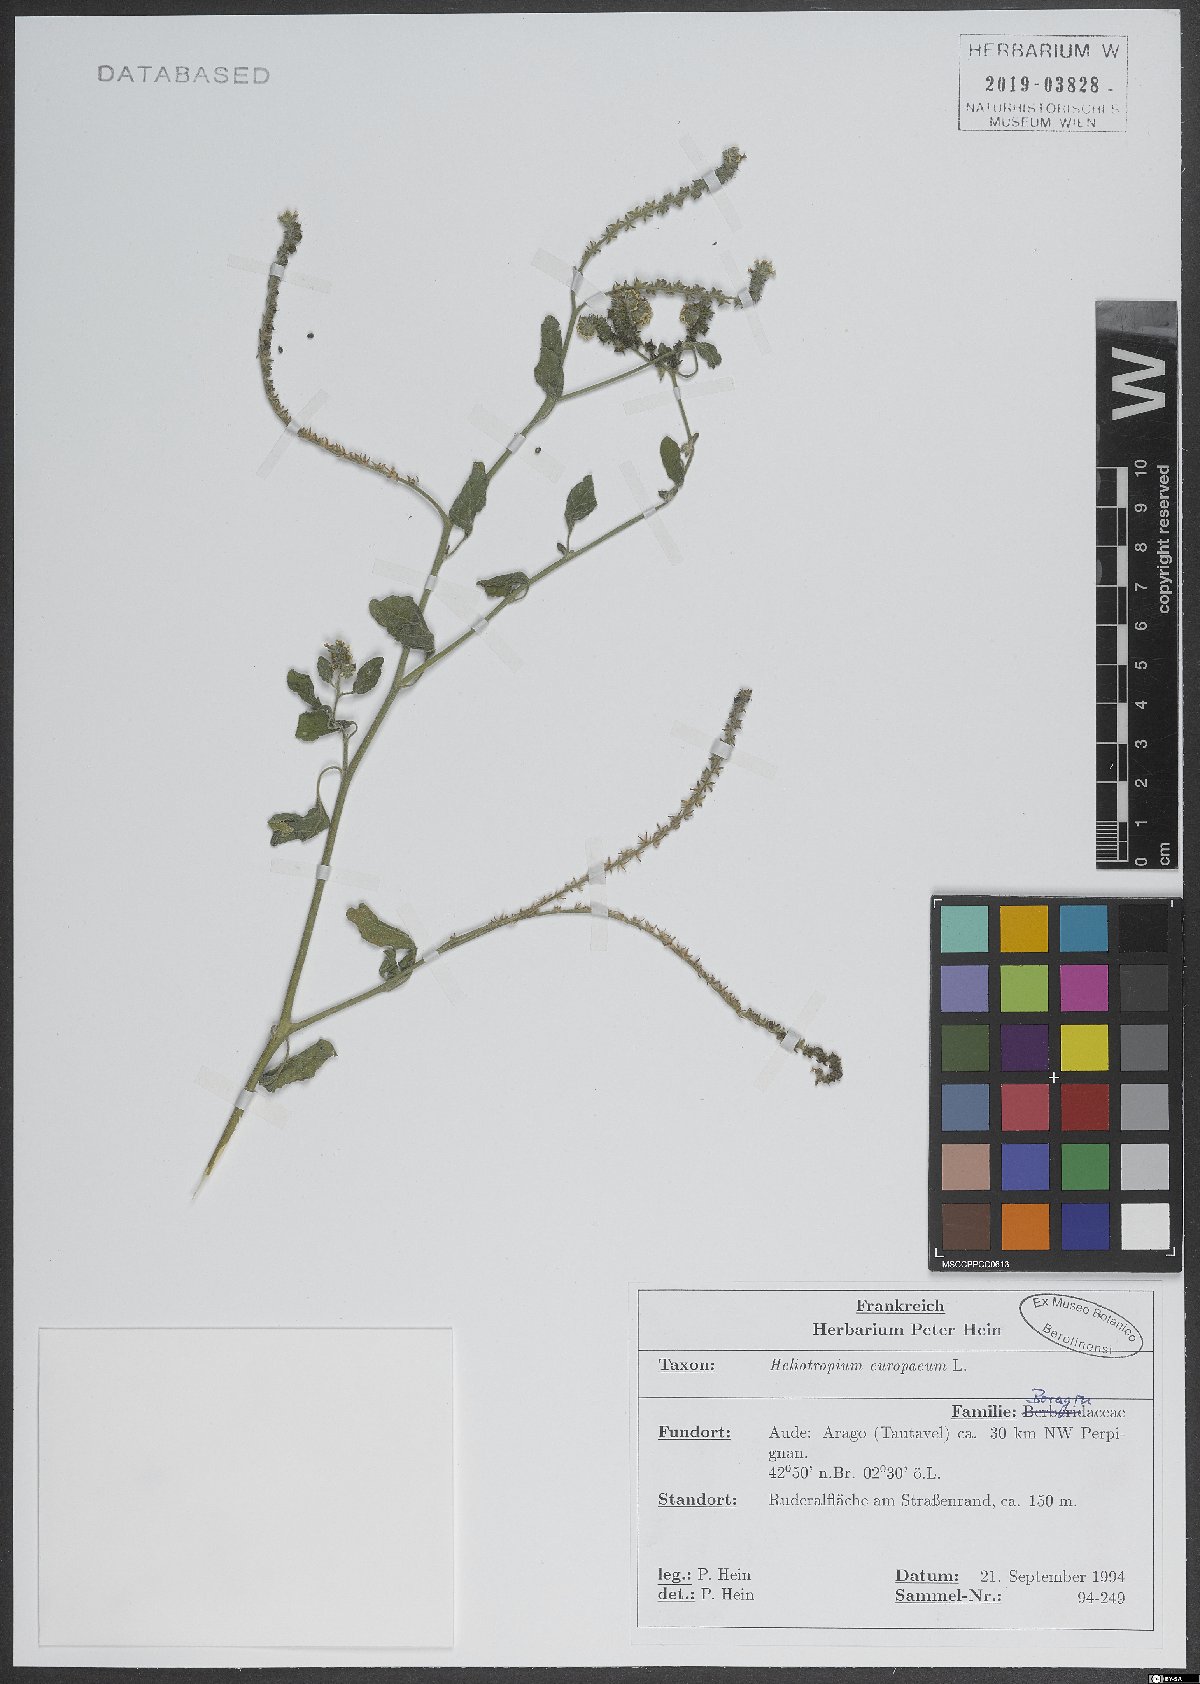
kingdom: Plantae
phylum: Tracheophyta
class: Magnoliopsida
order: Boraginales
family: Heliotropiaceae
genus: Heliotropium
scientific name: Heliotropium europaeum
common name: European heliotrope
